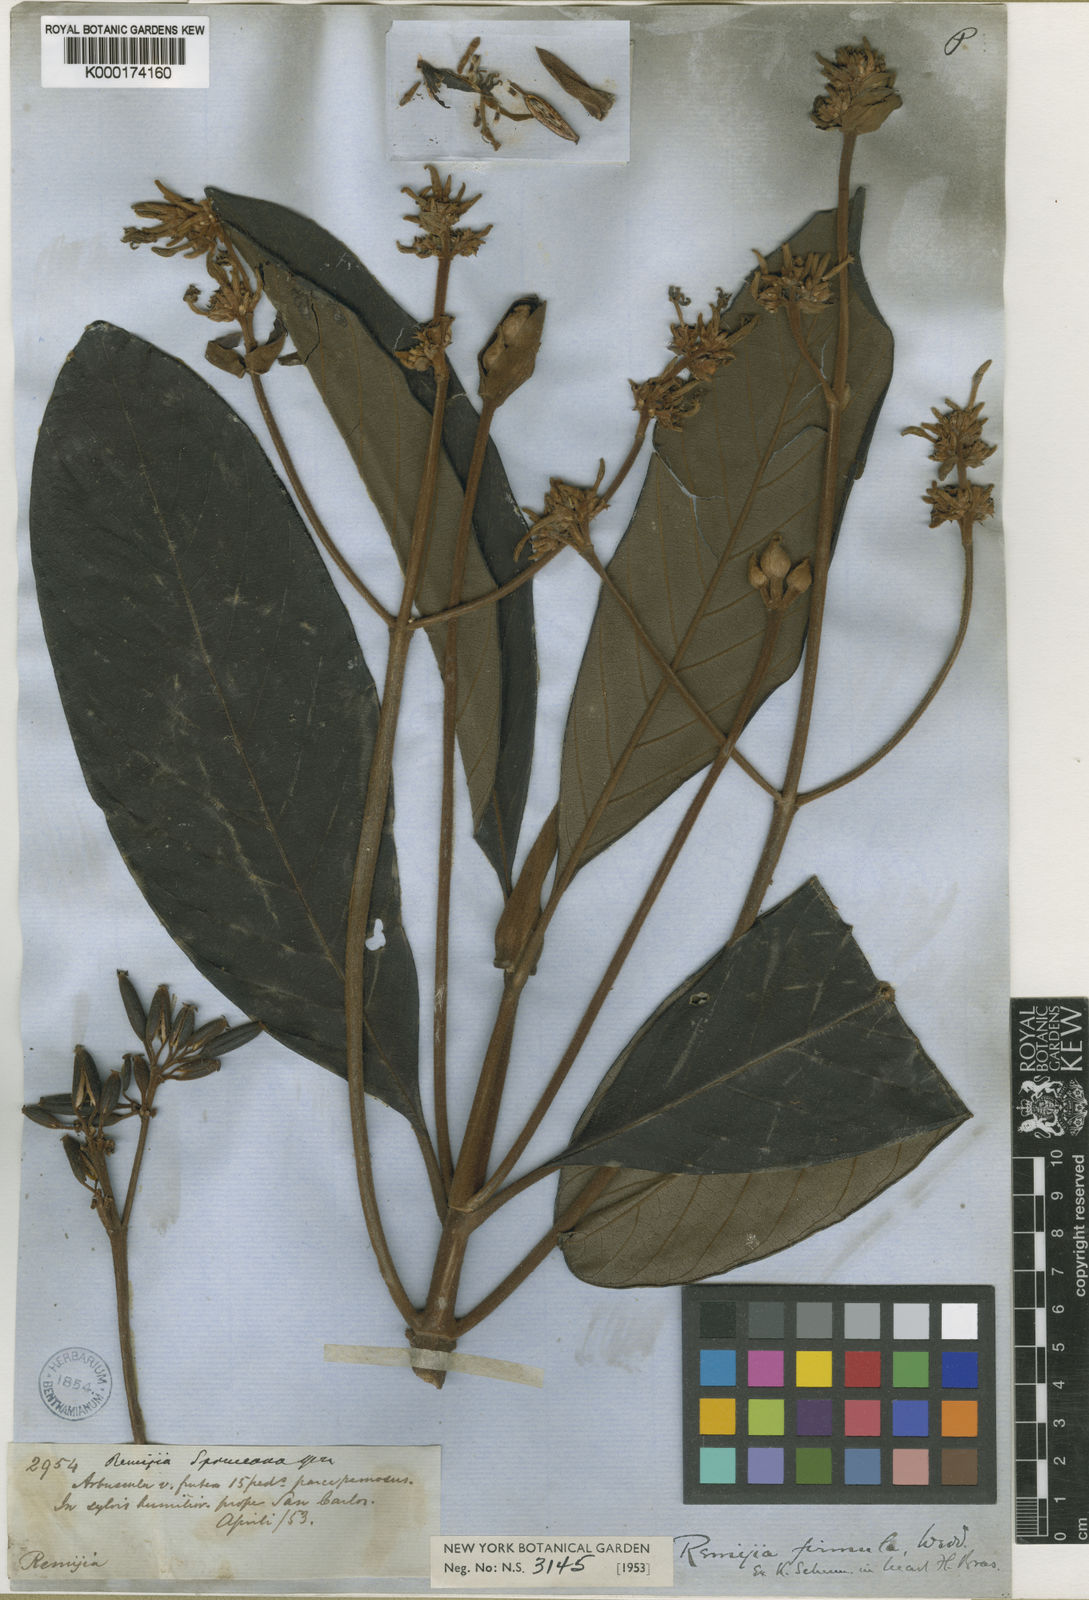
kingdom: Plantae
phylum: Tracheophyta
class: Magnoliopsida
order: Gentianales
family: Rubiaceae
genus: Remijia
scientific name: Remijia firmula
